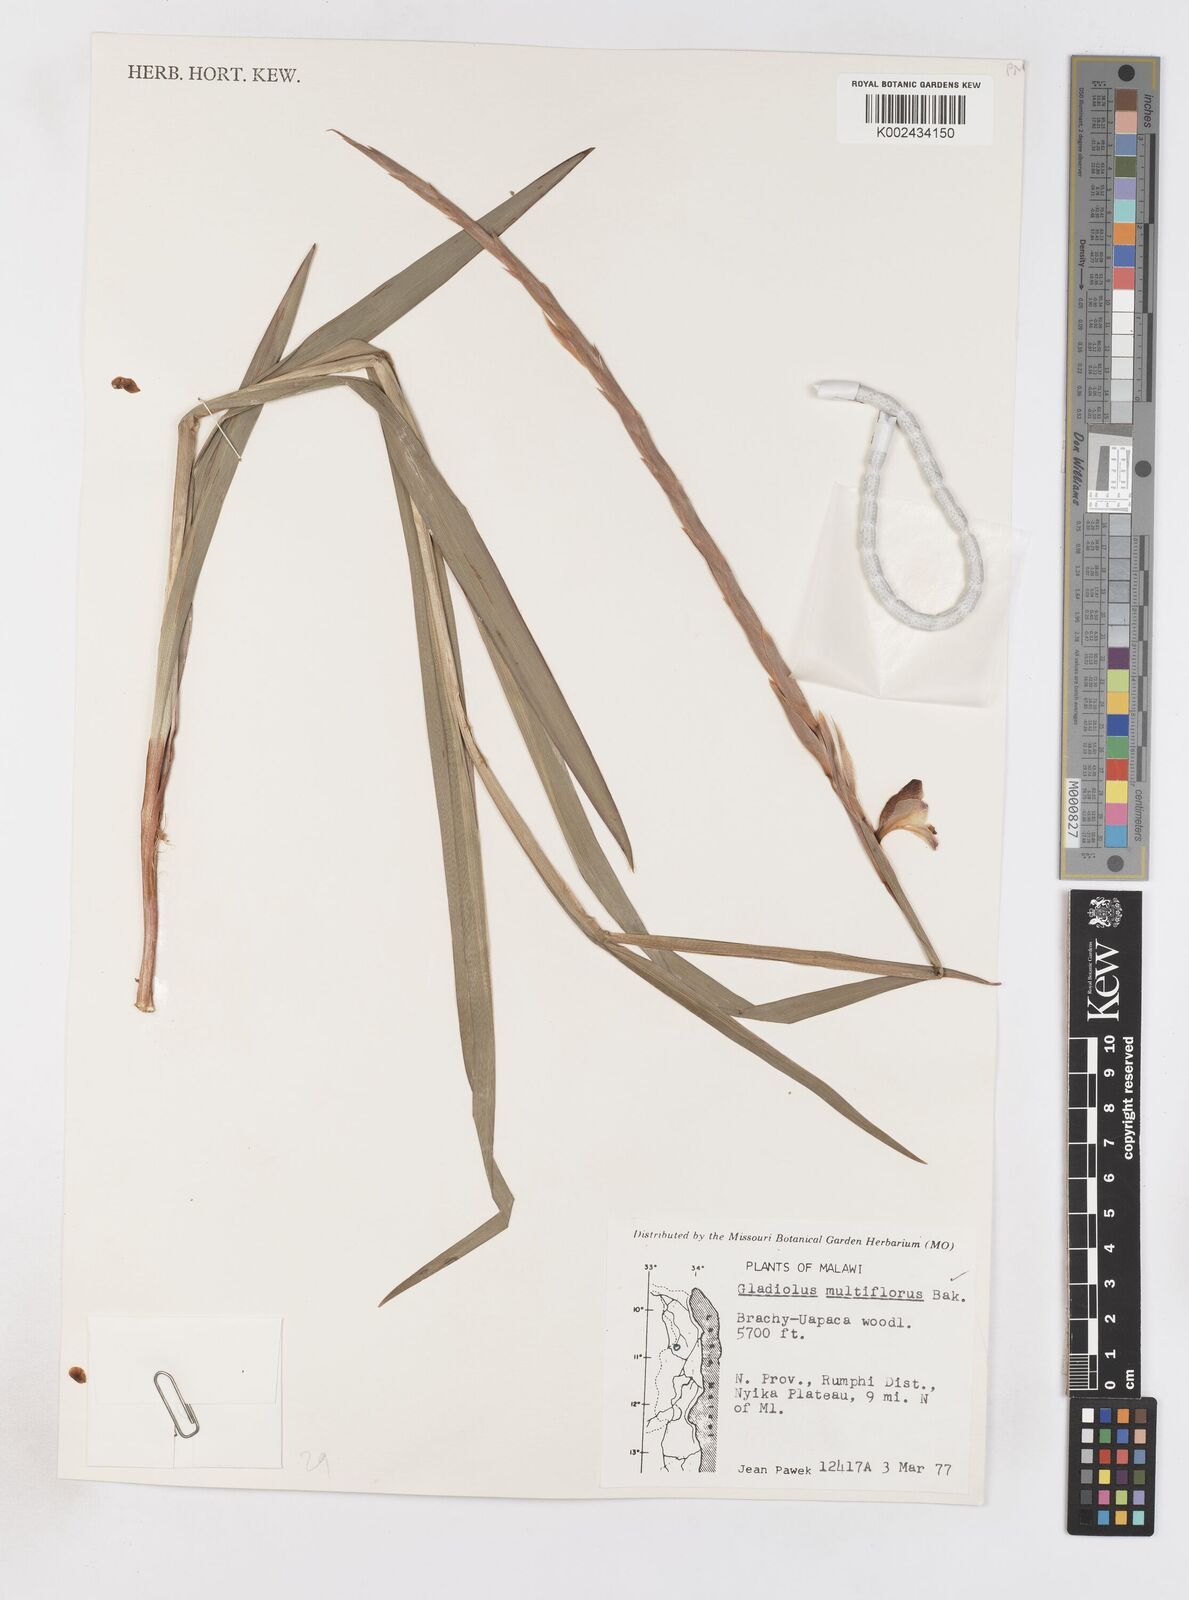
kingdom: Plantae
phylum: Tracheophyta
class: Liliopsida
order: Asparagales
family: Iridaceae
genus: Gladiolus
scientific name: Gladiolus gregarius
